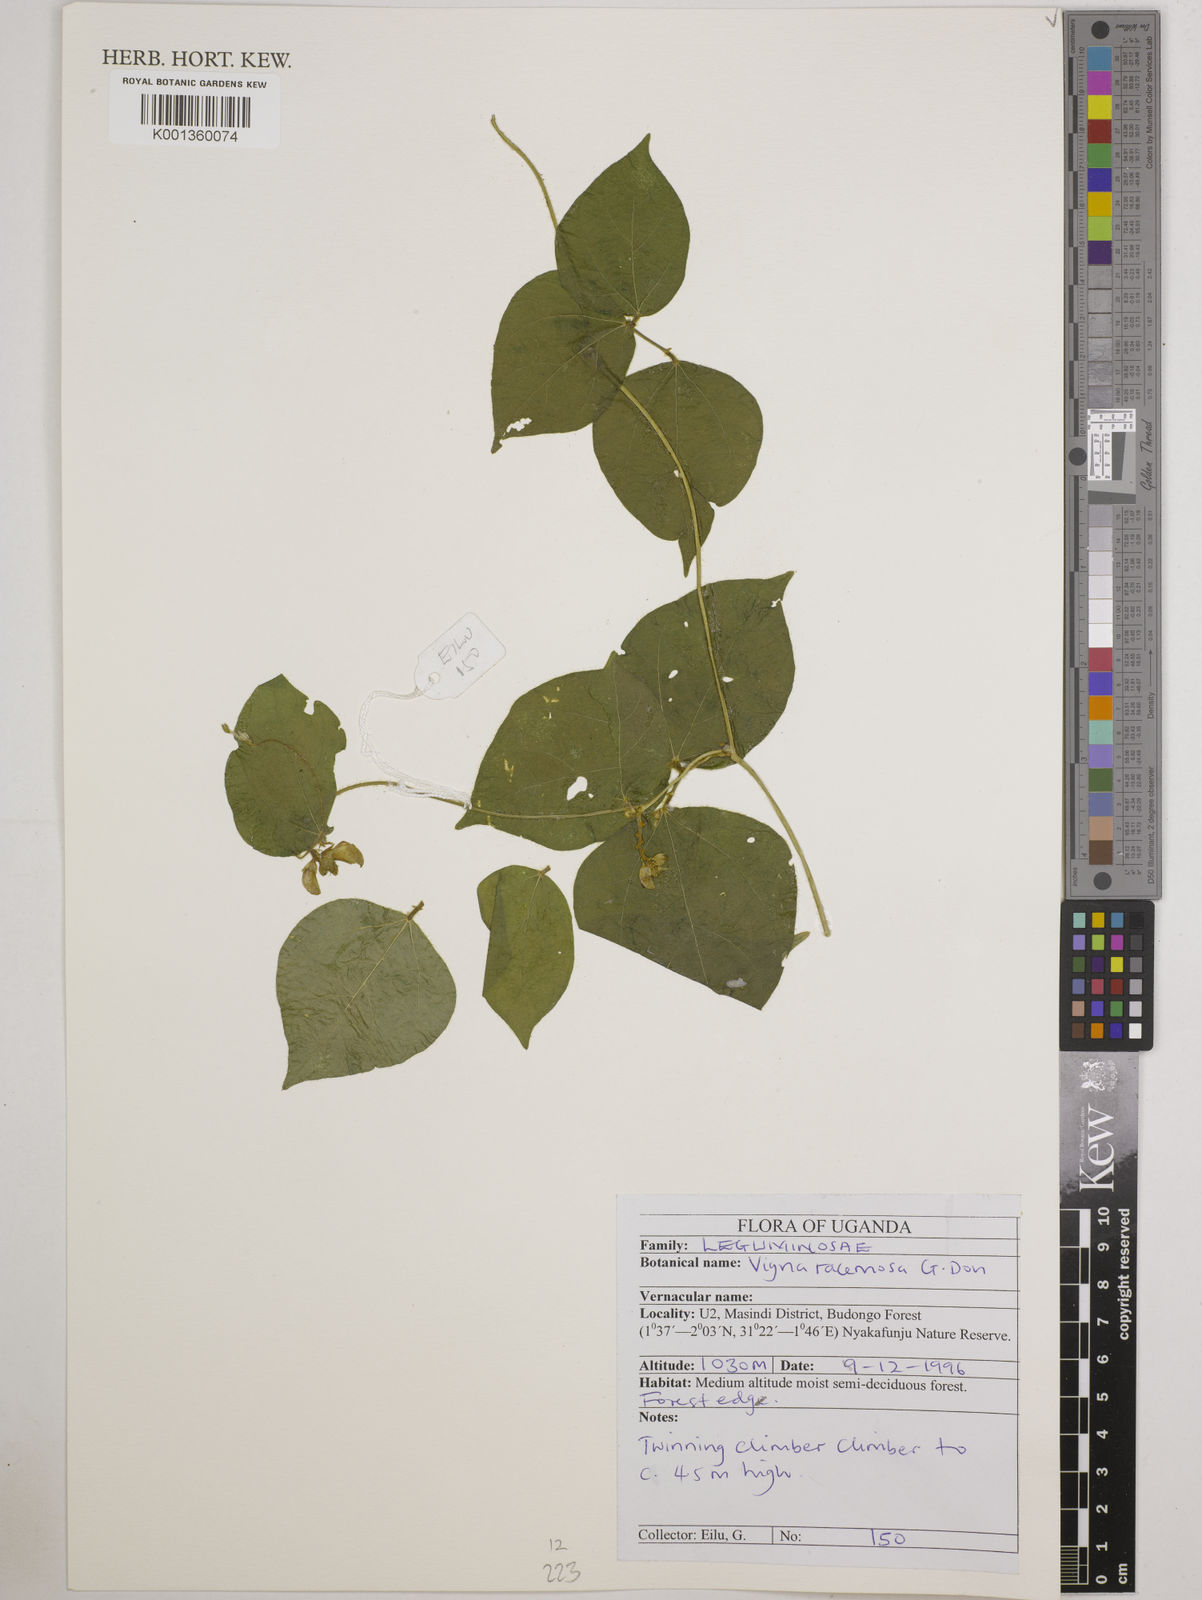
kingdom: Plantae
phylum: Tracheophyta
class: Magnoliopsida
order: Fabales
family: Fabaceae
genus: Vigna
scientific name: Vigna racemosa
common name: Beans not eaten
